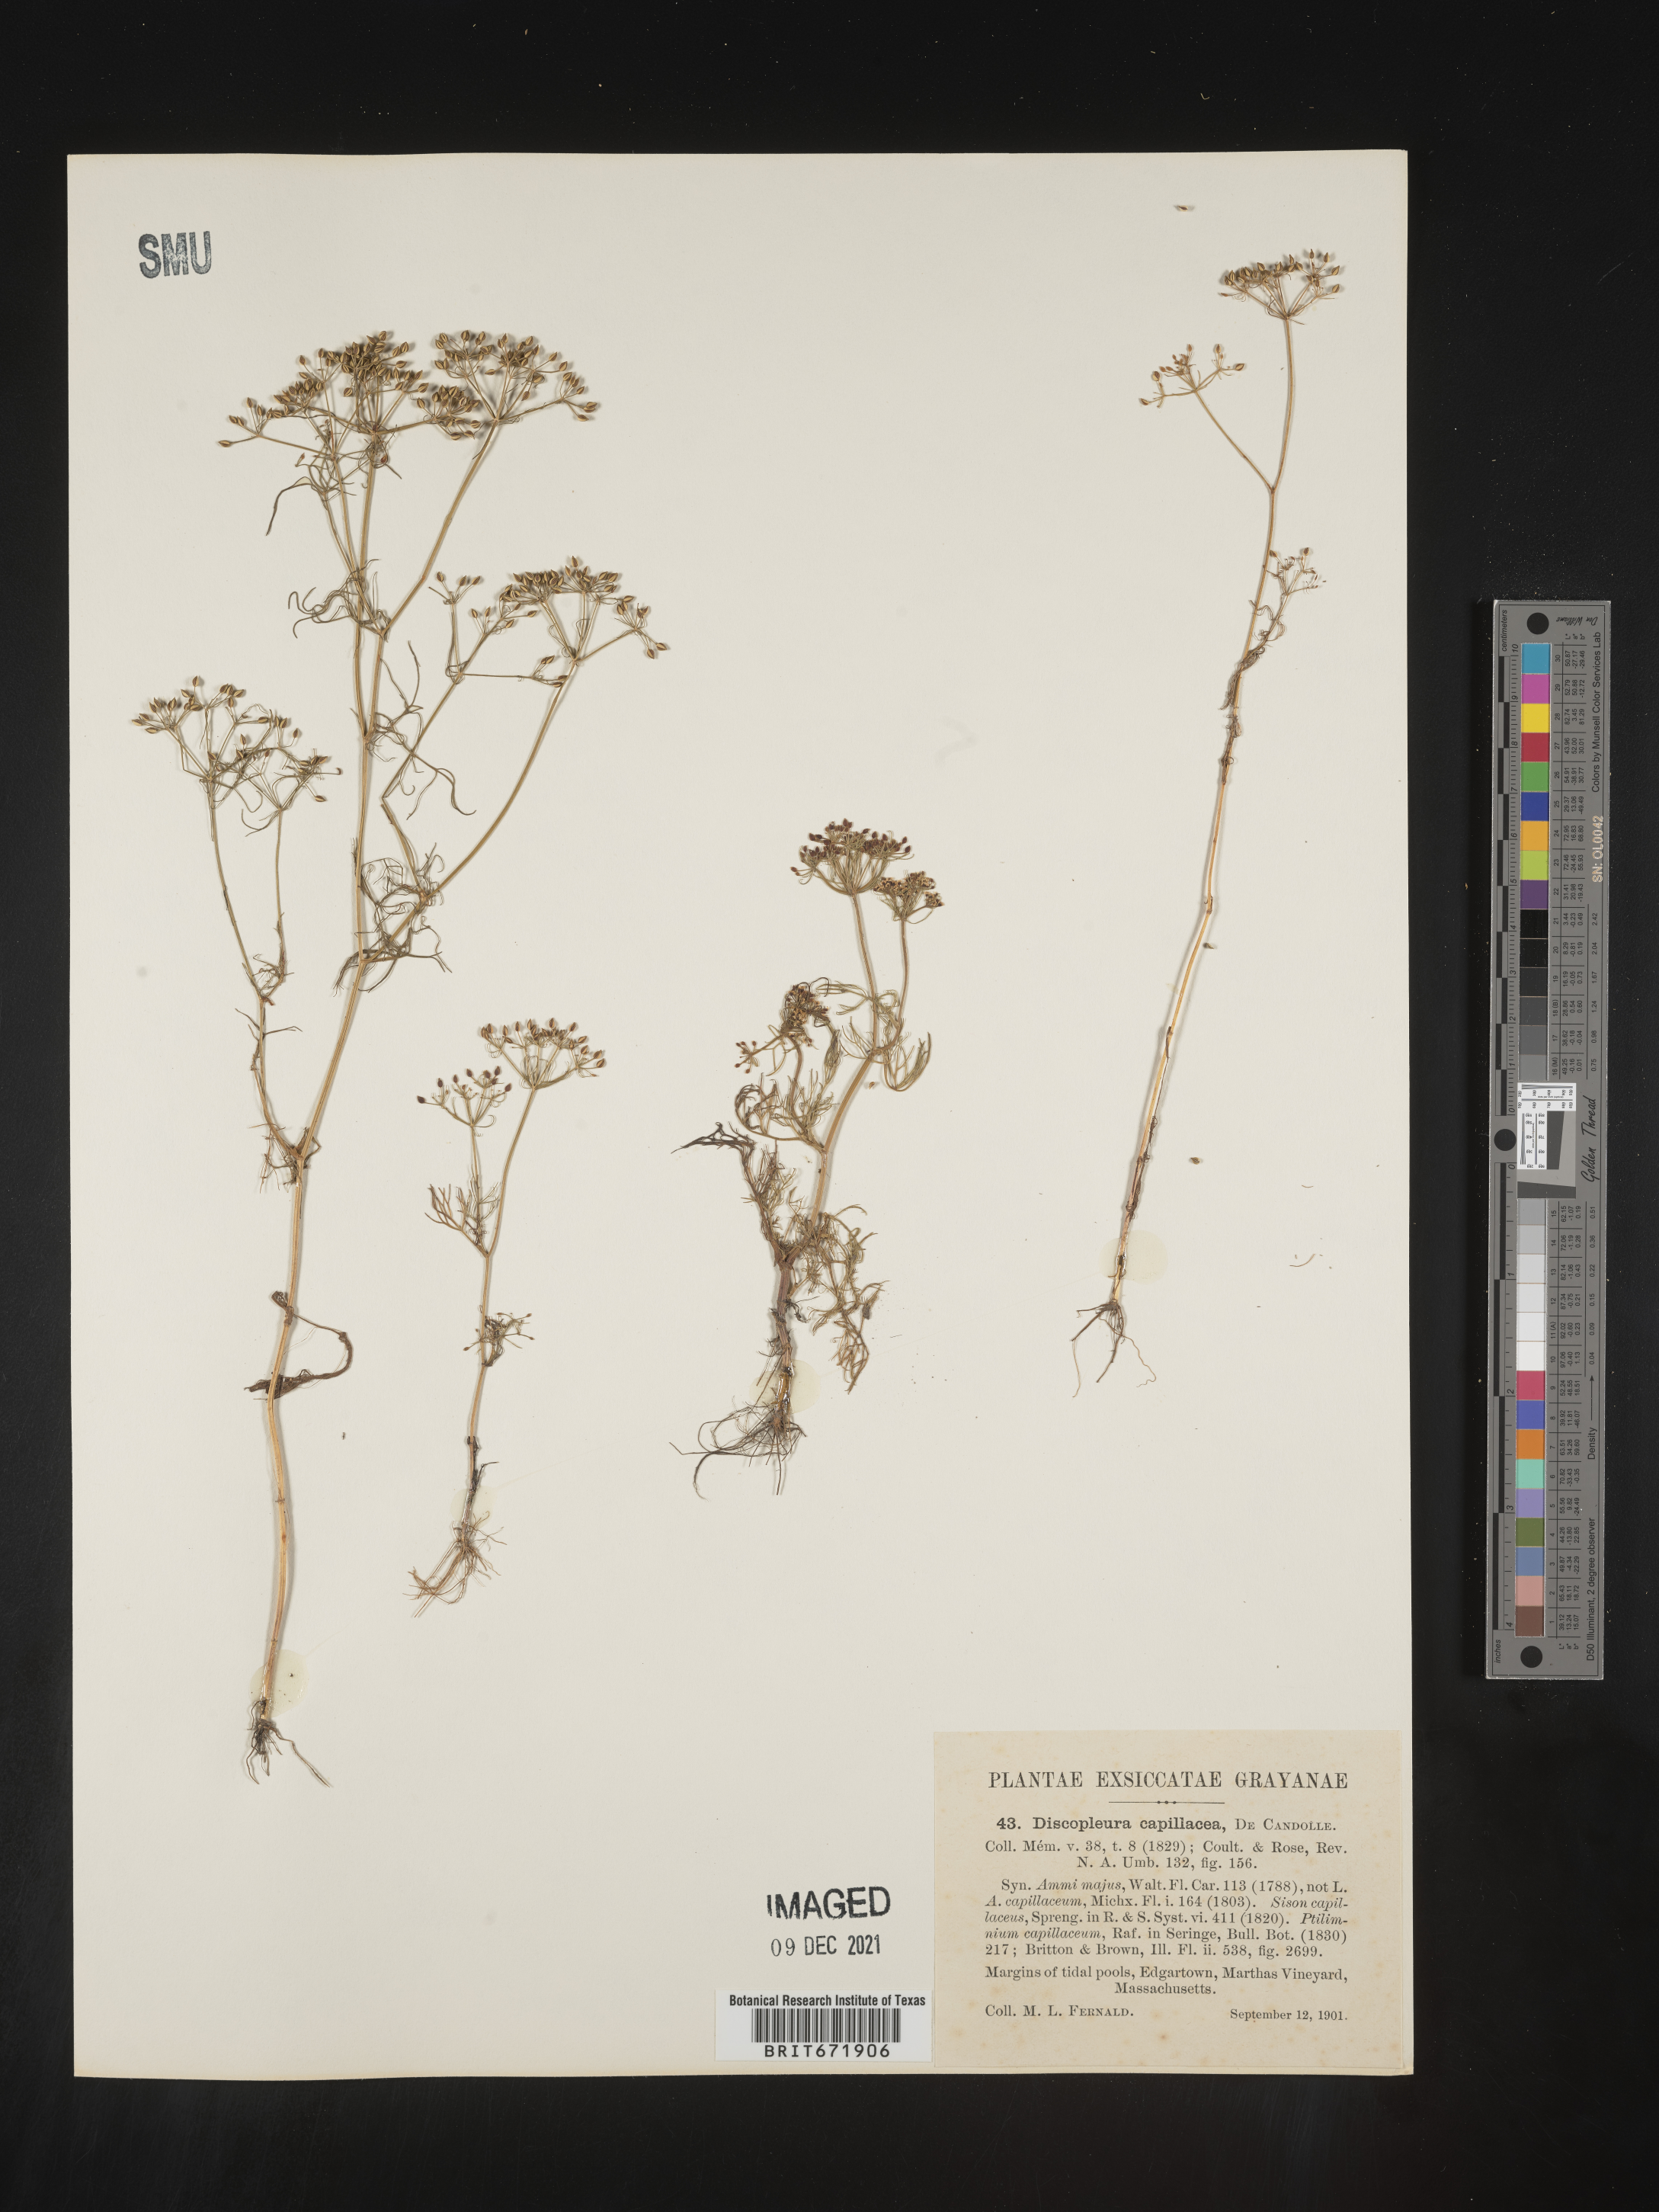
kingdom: Plantae
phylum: Tracheophyta
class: Magnoliopsida
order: Apiales
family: Apiaceae
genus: Ptilimnium
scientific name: Ptilimnium capillaceum
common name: Herbwilliam
